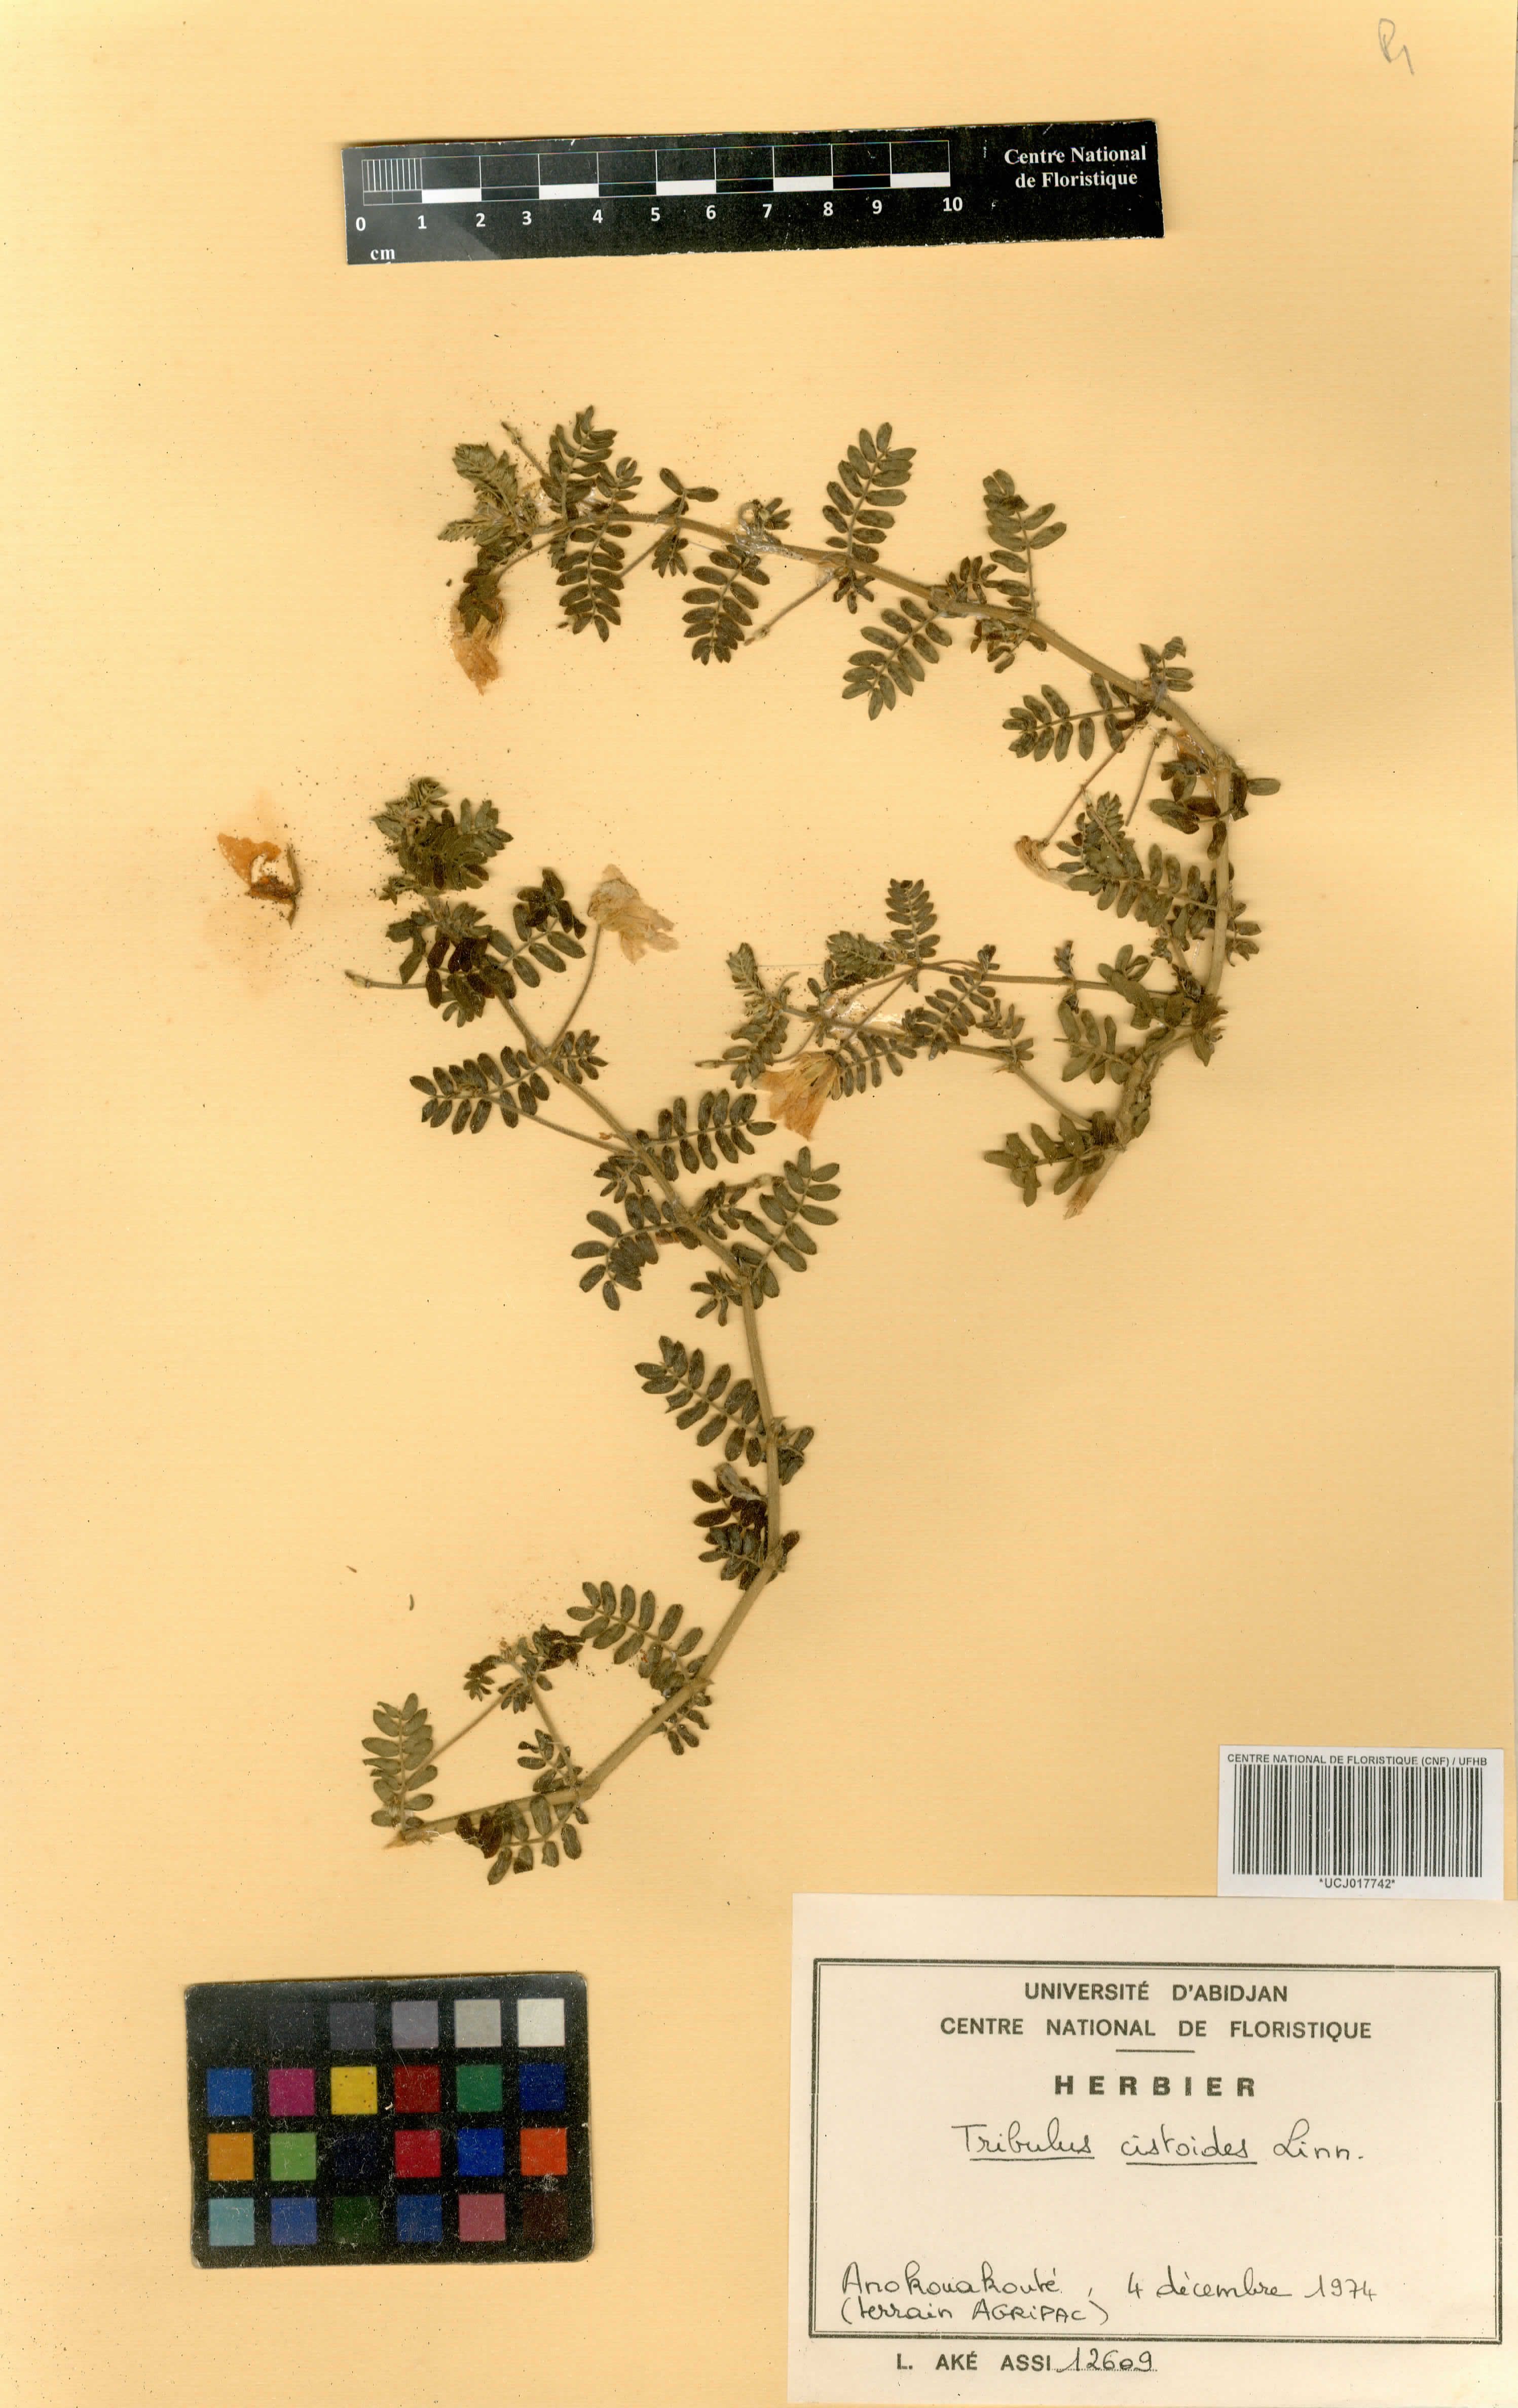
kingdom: Plantae
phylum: Tracheophyta
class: Magnoliopsida
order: Zygophyllales
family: Zygophyllaceae
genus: Tribulus
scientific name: Tribulus cistoides
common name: Jamaican feverplant
